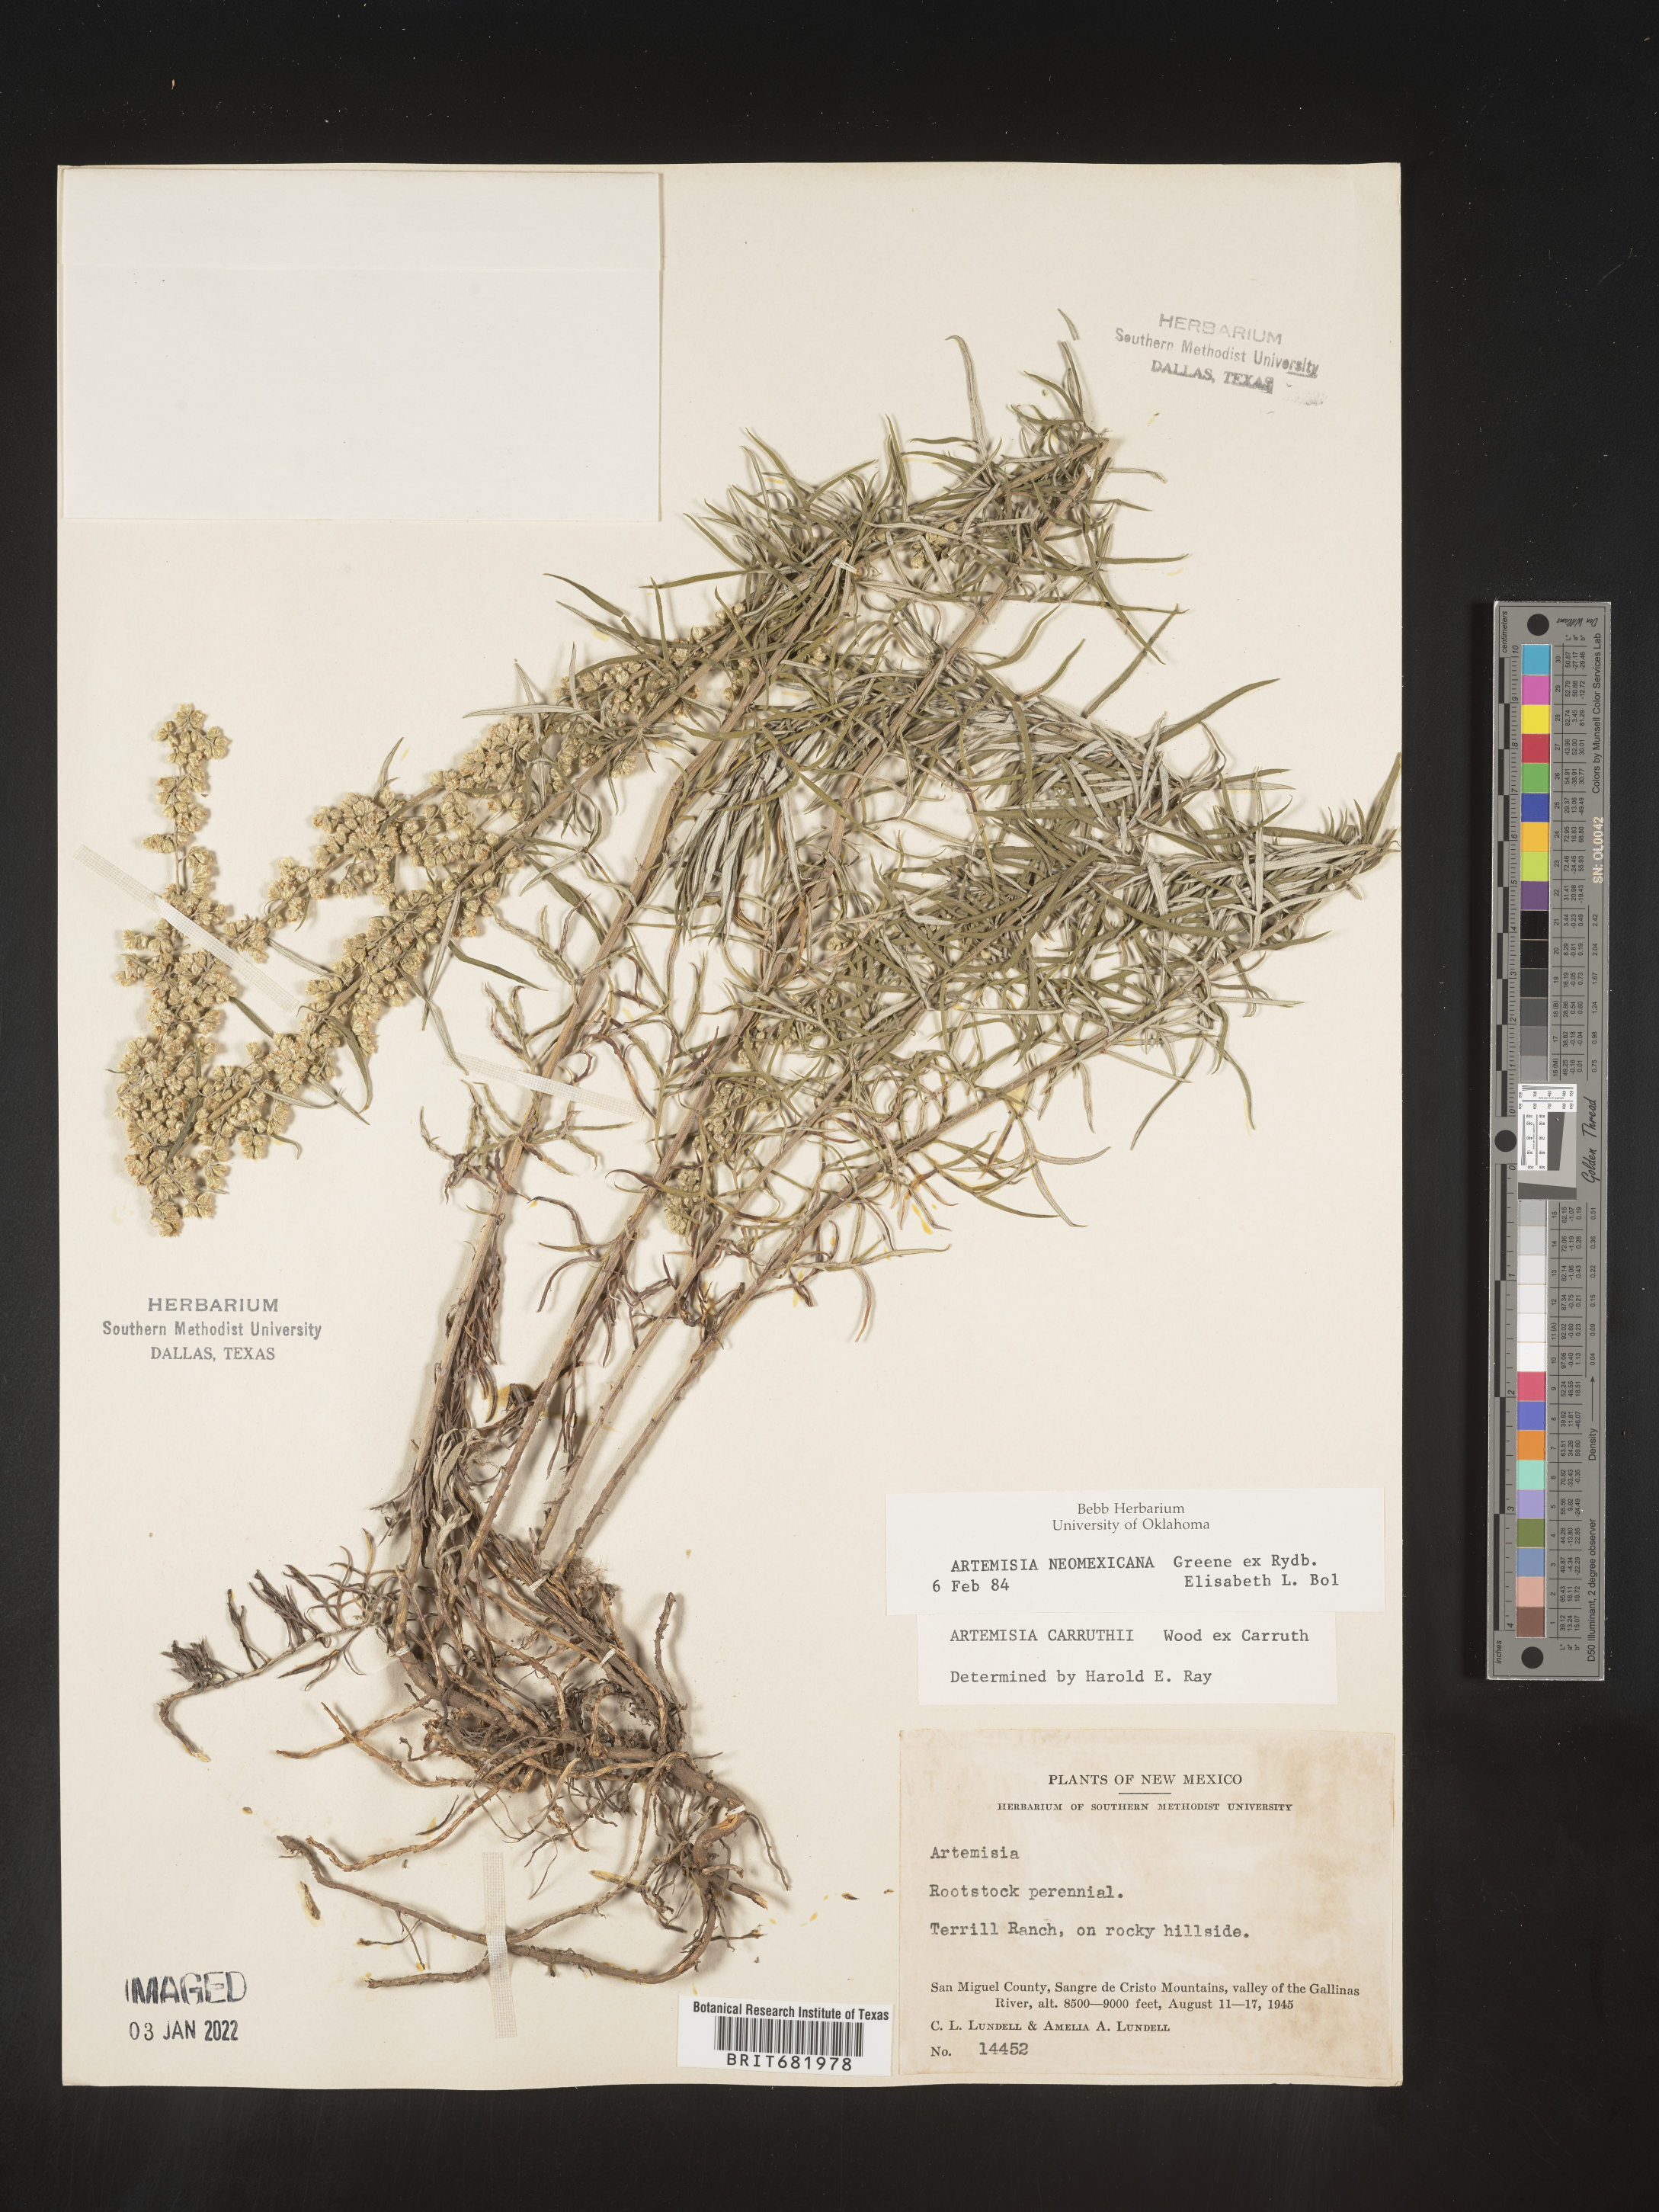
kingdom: Plantae
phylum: Tracheophyta
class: Magnoliopsida
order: Asterales
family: Asteraceae
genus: Artemisia
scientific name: Artemisia ludoviciana
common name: Western mugwort
